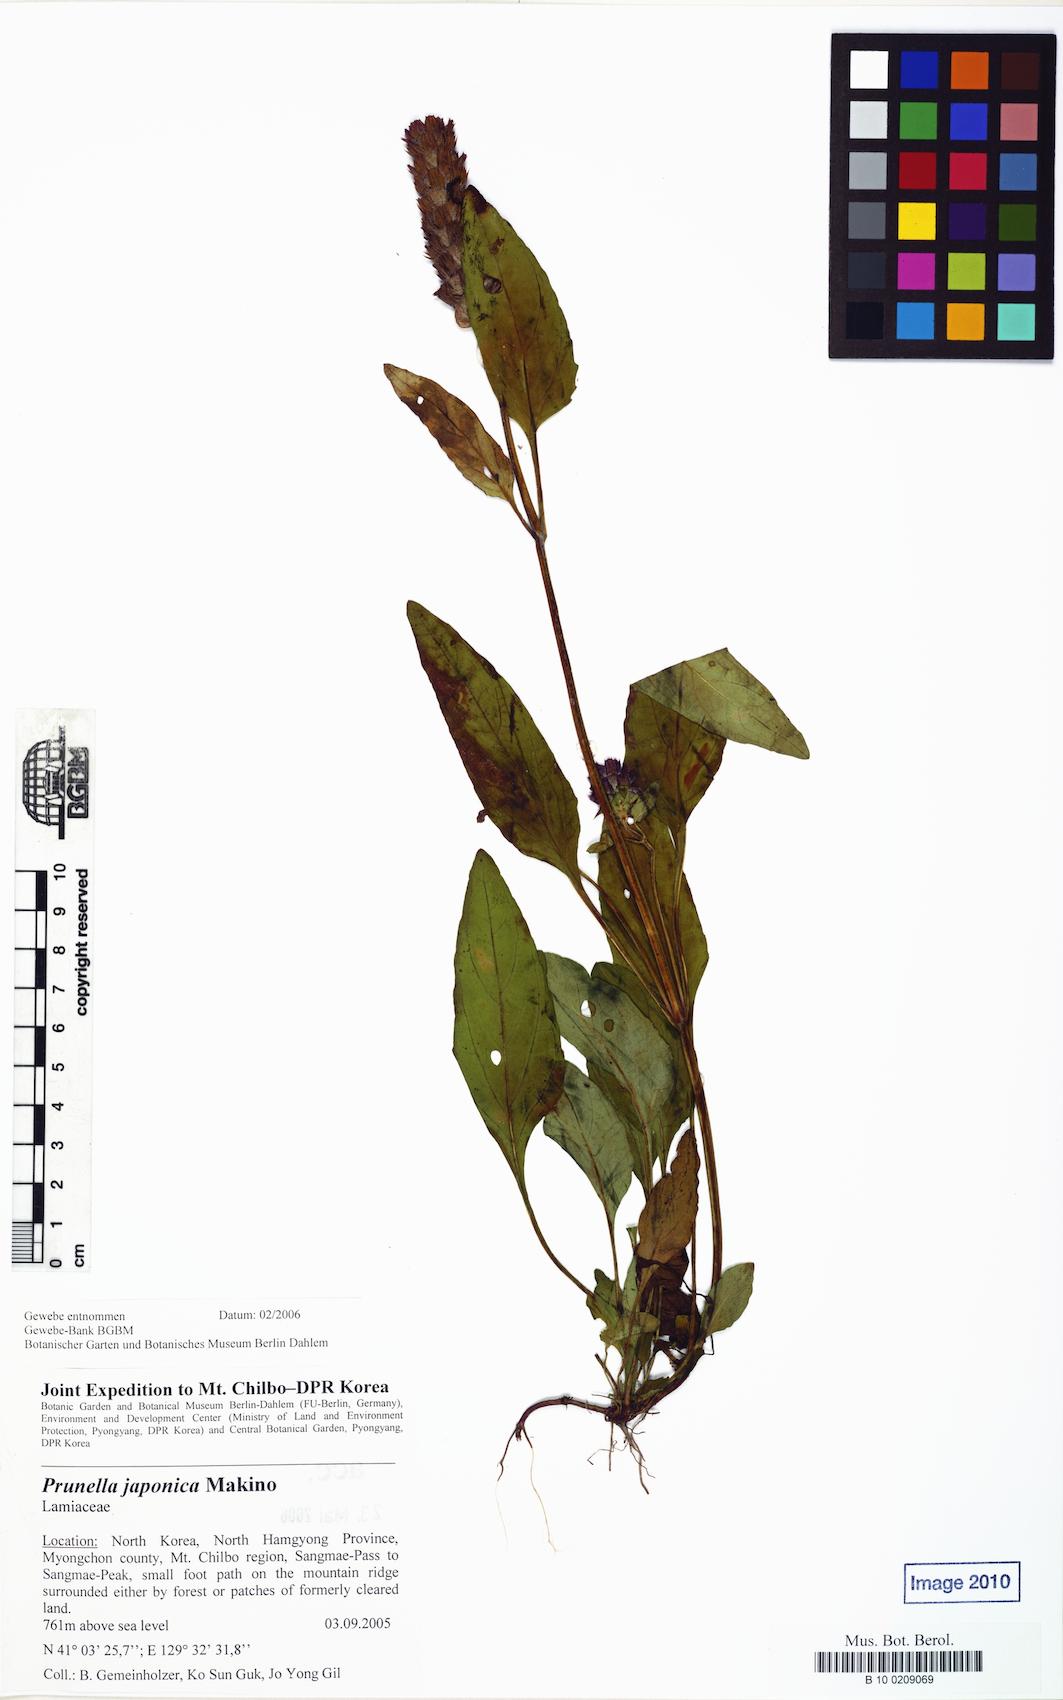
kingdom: Plantae
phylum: Tracheophyta
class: Magnoliopsida
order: Lamiales
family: Lamiaceae
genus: Prunella
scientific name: Prunella vulgaris
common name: Heal-all
